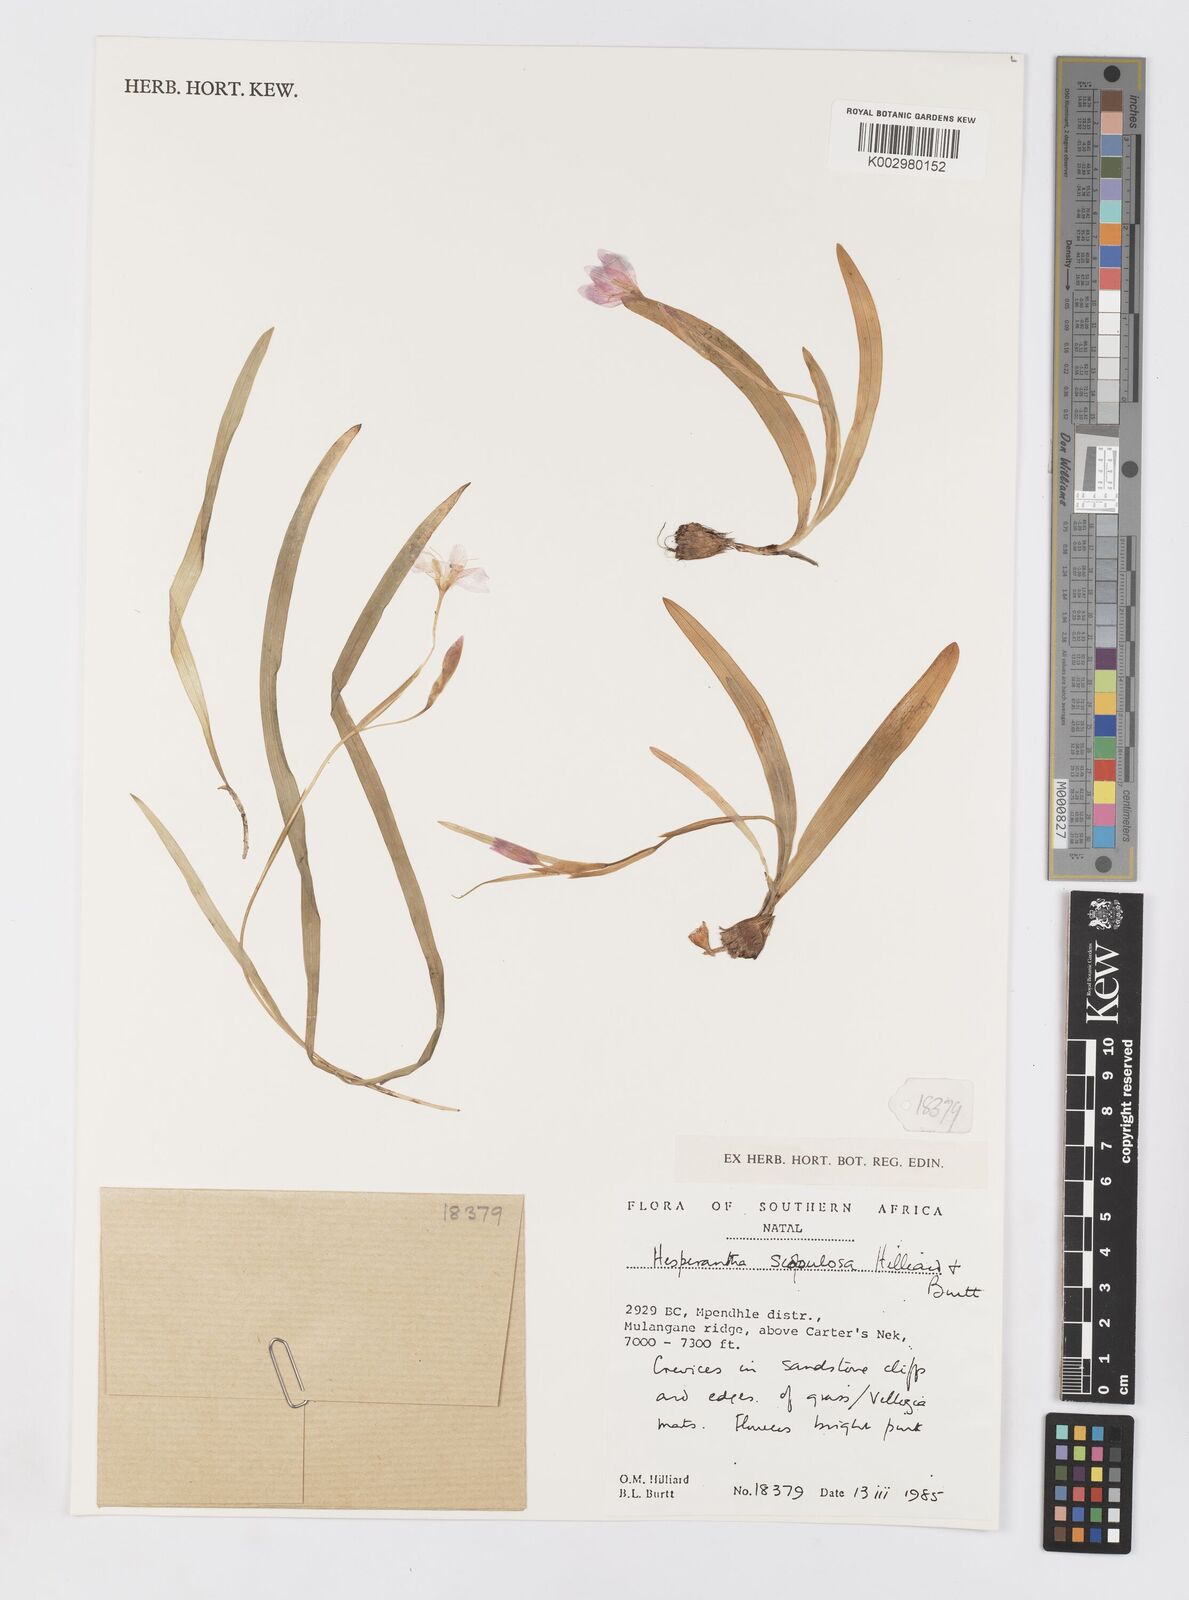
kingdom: Plantae
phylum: Tracheophyta
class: Liliopsida
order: Asparagales
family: Iridaceae
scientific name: Iridaceae
